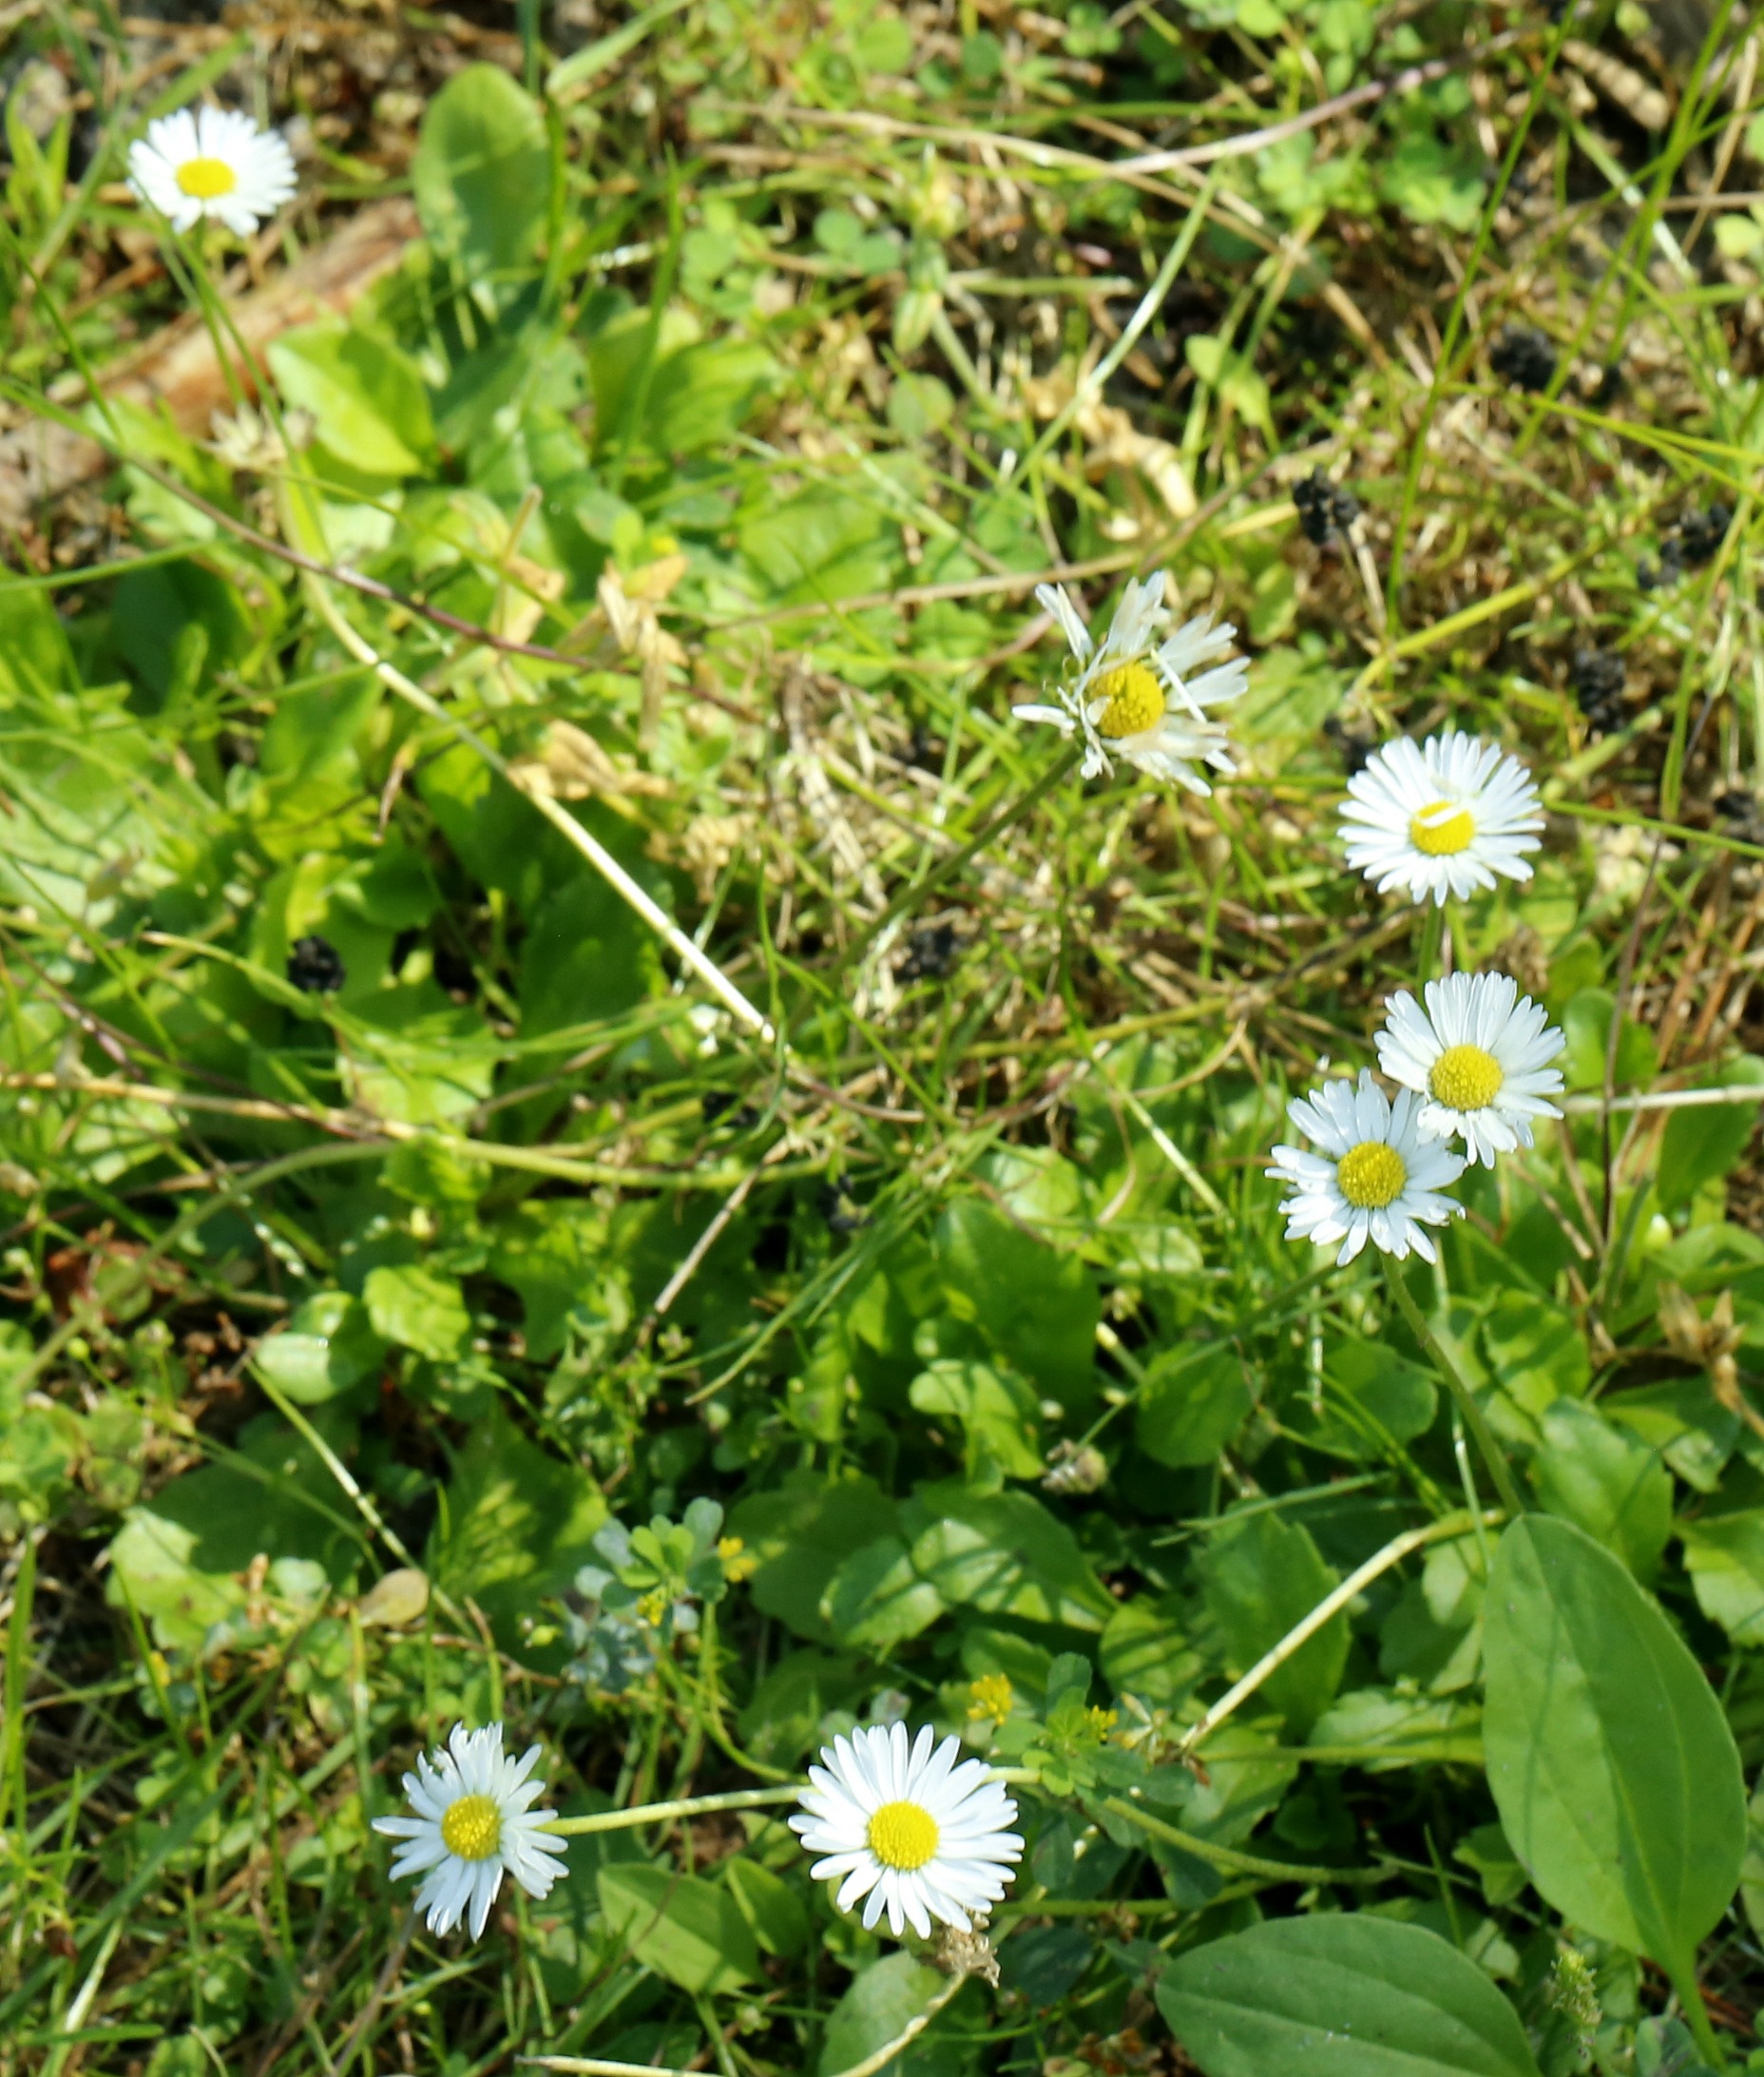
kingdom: Plantae
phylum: Tracheophyta
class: Magnoliopsida
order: Asterales
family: Asteraceae
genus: Bellis
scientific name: Bellis perennis
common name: Tusindfryd
